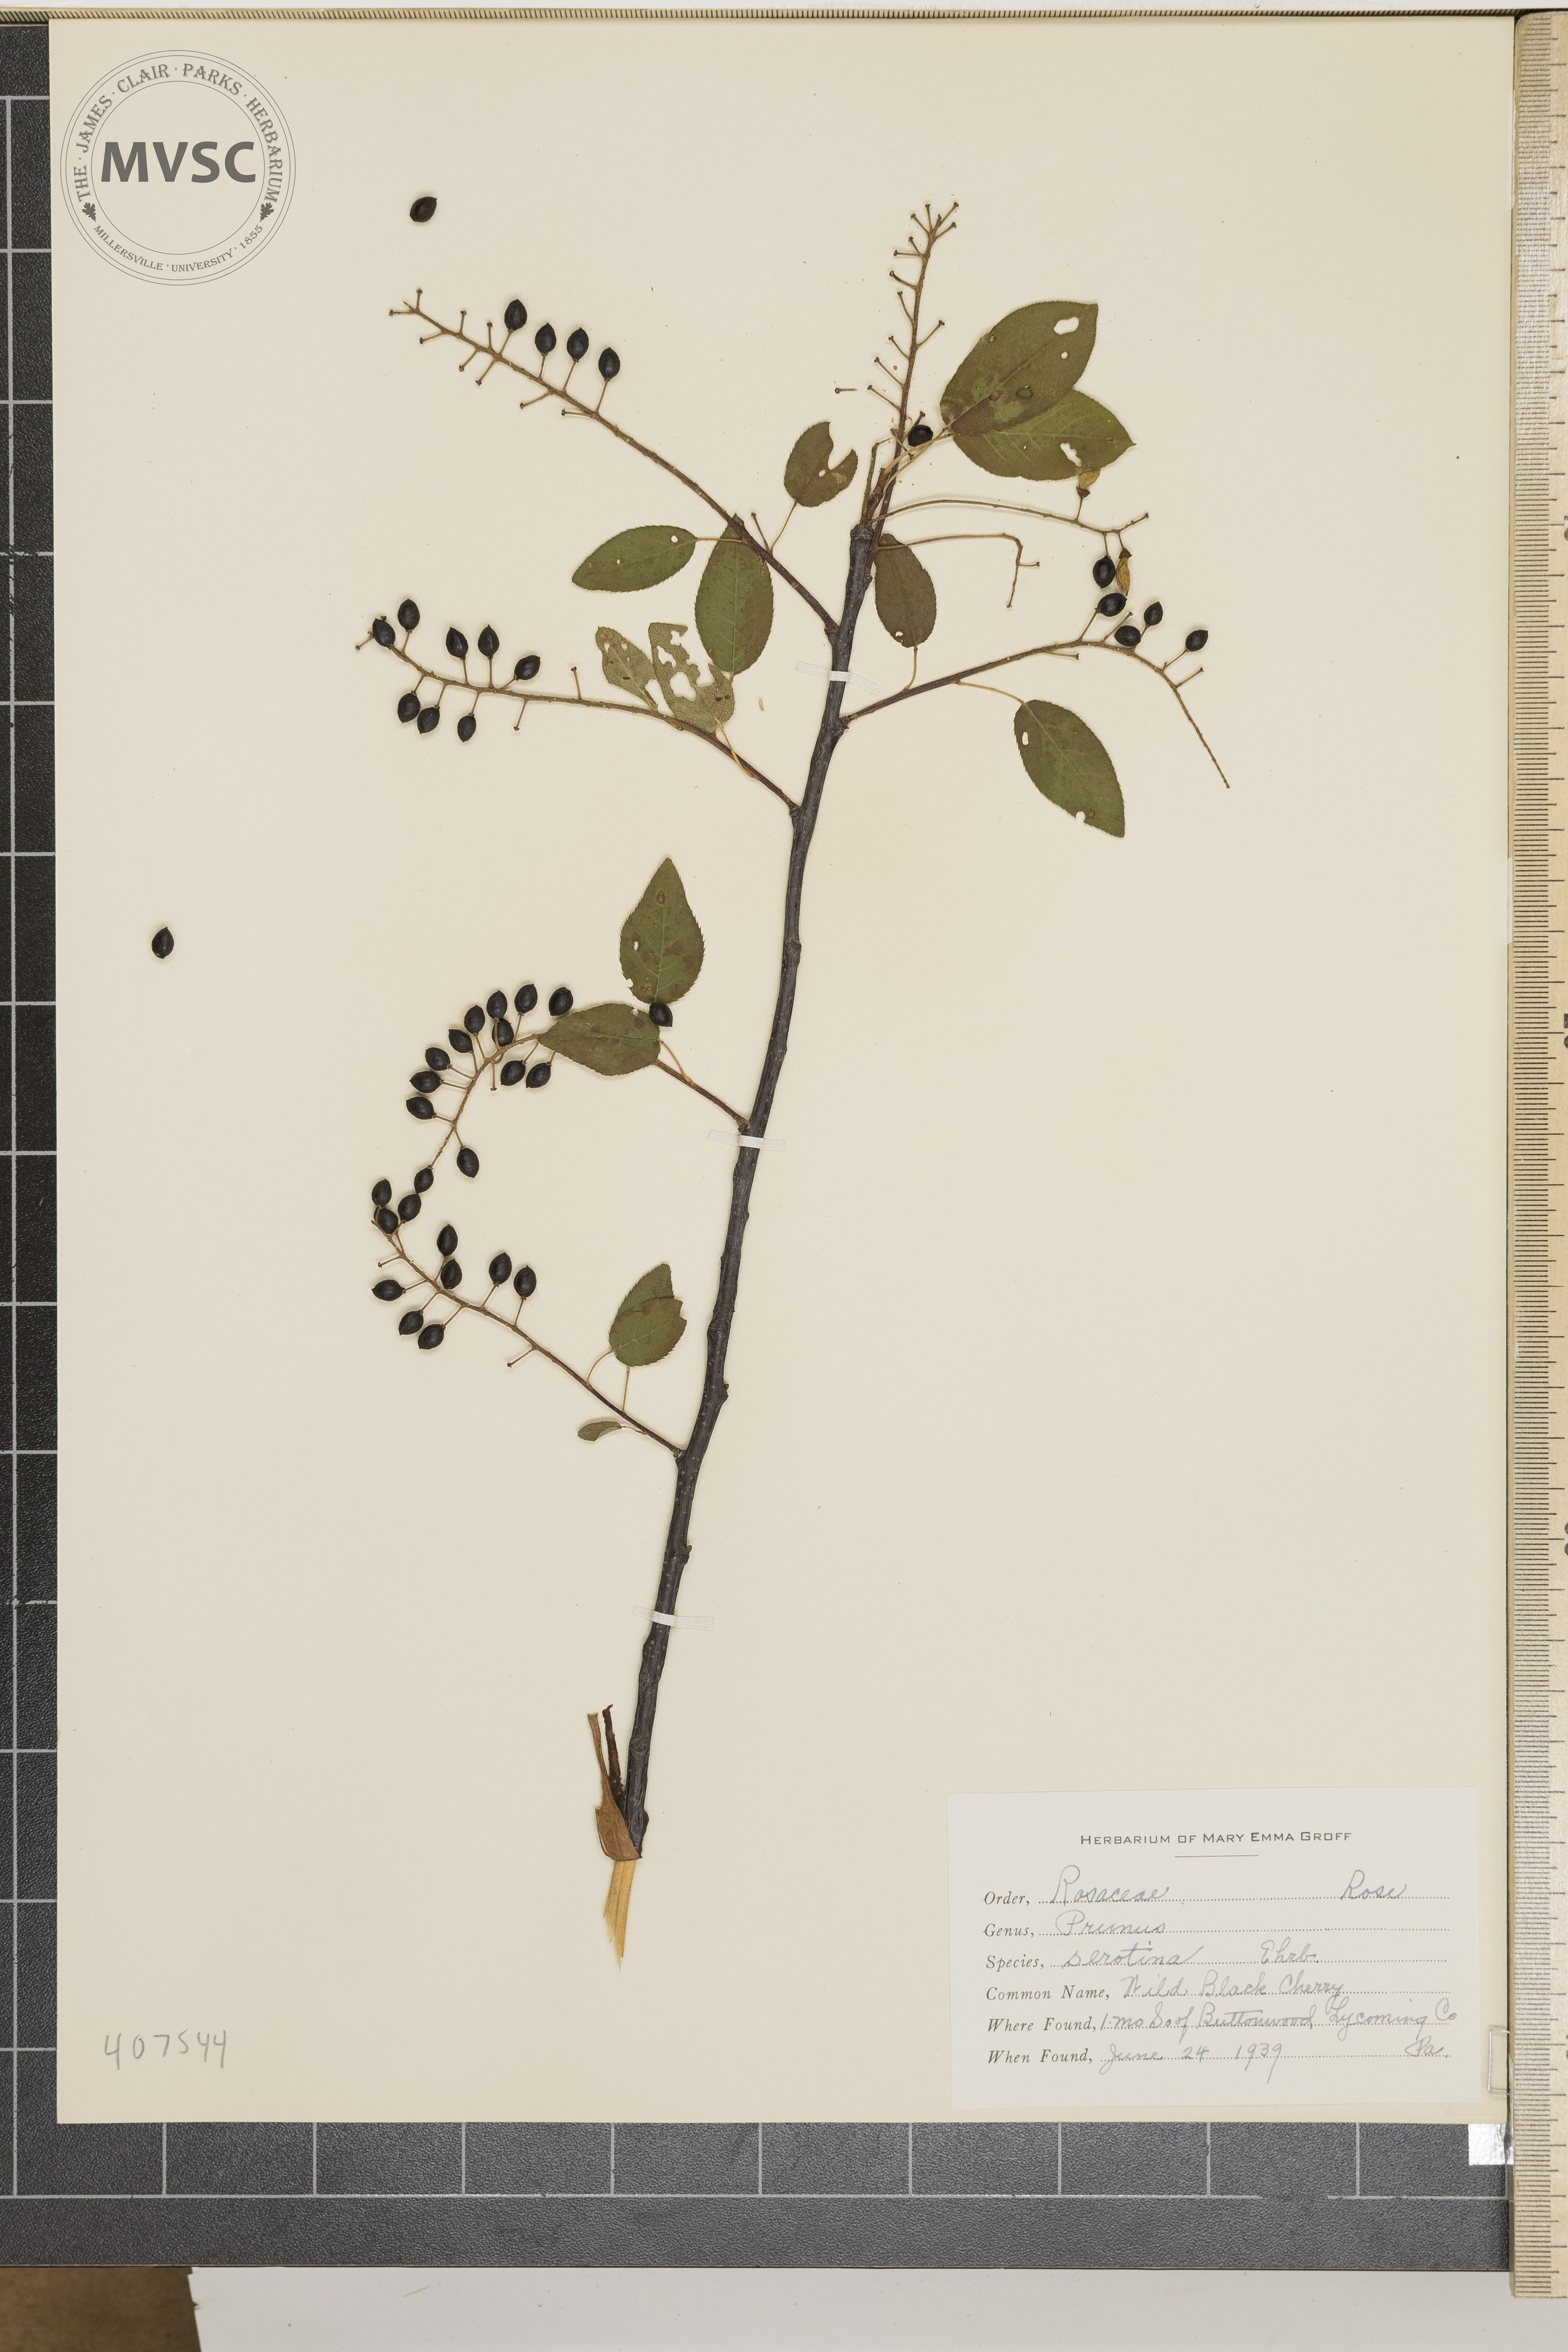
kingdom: Plantae
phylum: Tracheophyta
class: Magnoliopsida
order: Rosales
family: Rosaceae
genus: Prunus
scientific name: Prunus serotina
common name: Wild black cherry
